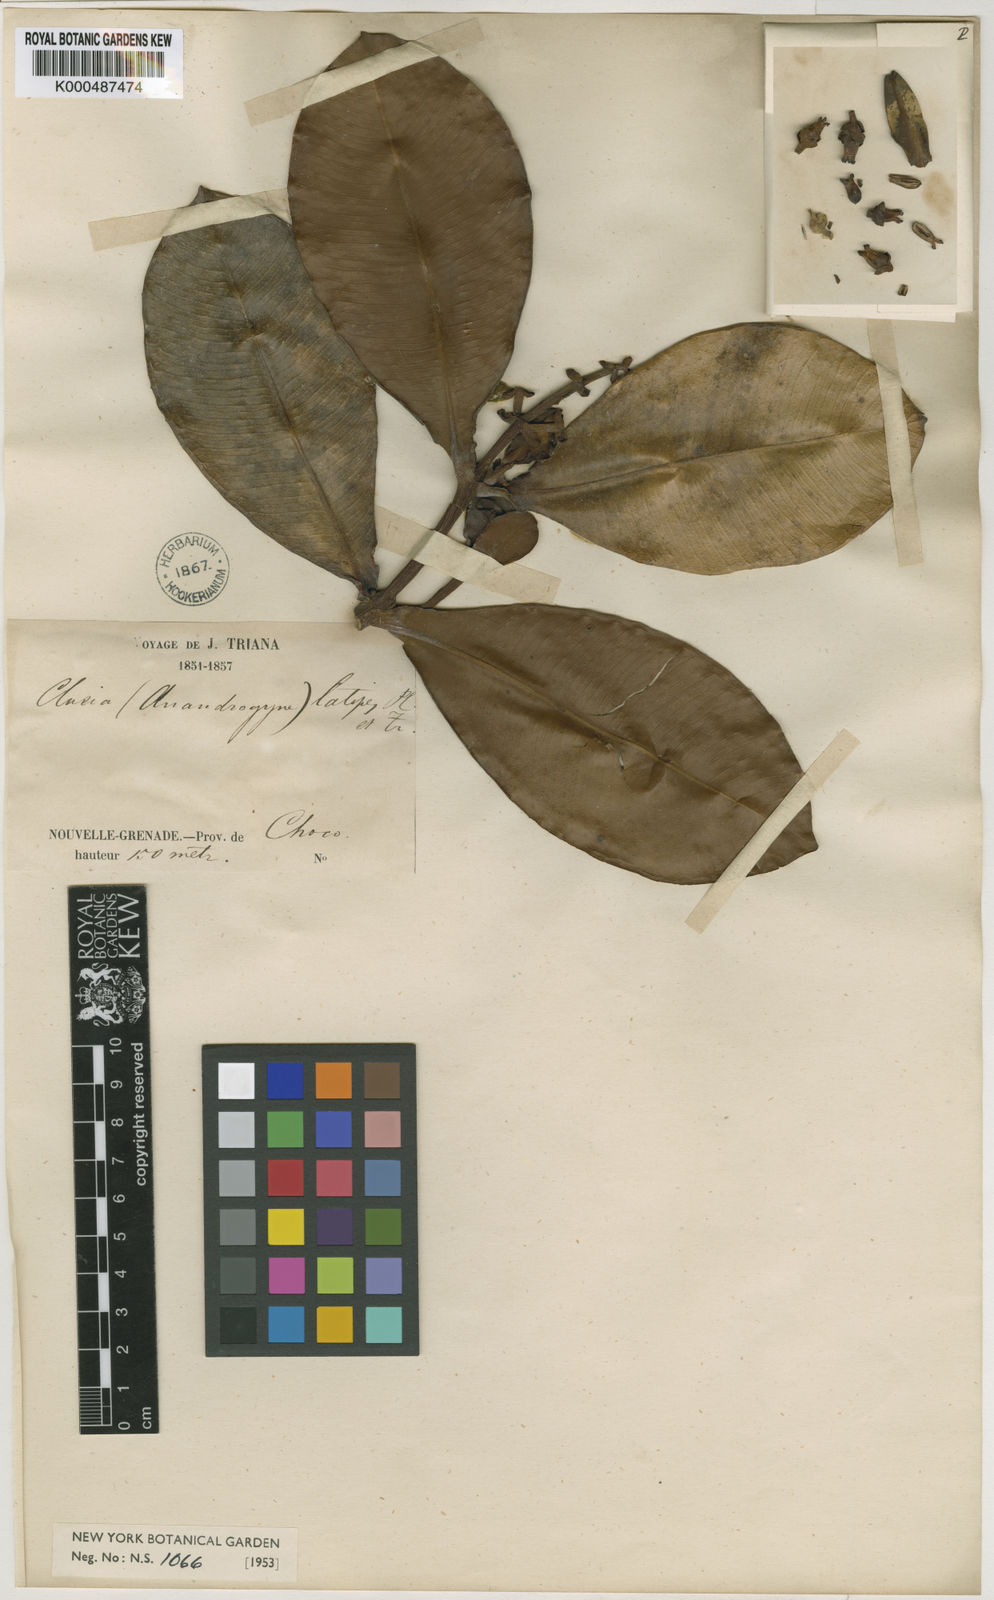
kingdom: Plantae
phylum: Tracheophyta
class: Magnoliopsida
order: Malpighiales
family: Clusiaceae
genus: Clusia
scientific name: Clusia latipes
